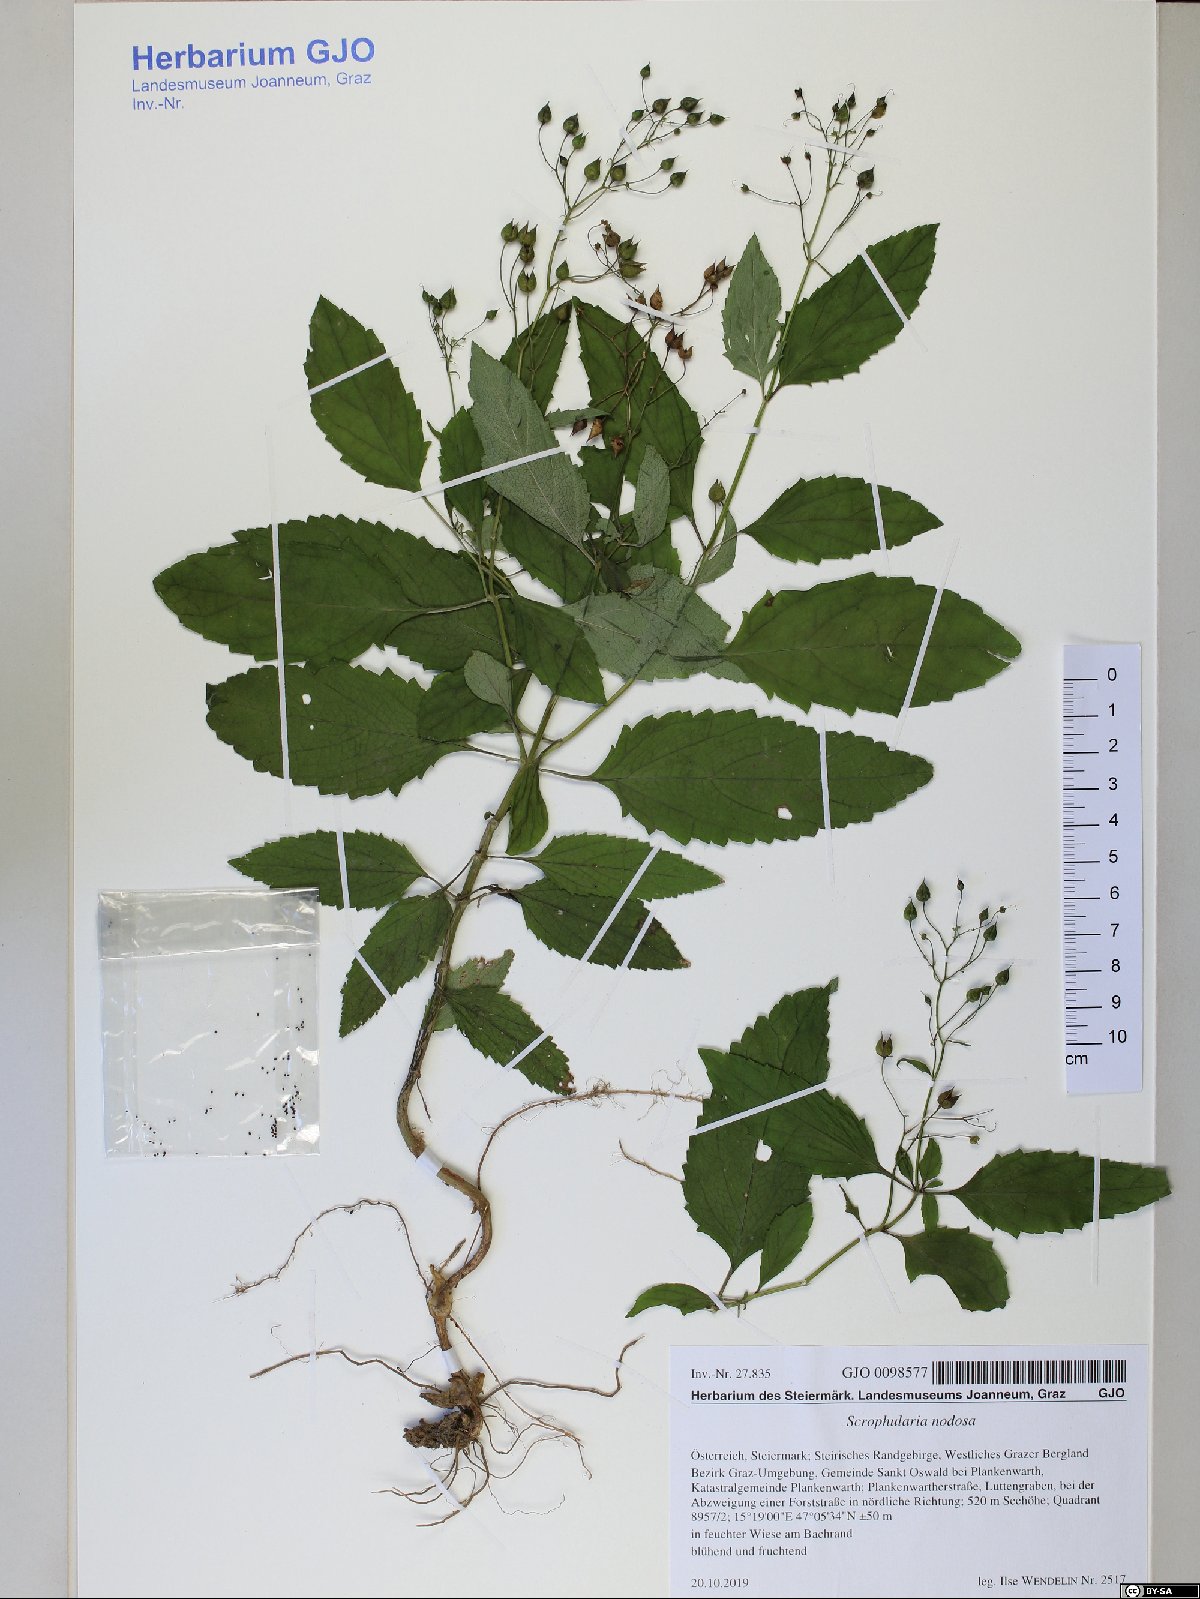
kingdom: Plantae
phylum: Tracheophyta
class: Magnoliopsida
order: Lamiales
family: Scrophulariaceae
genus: Scrophularia
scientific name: Scrophularia nodosa
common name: Common figwort
